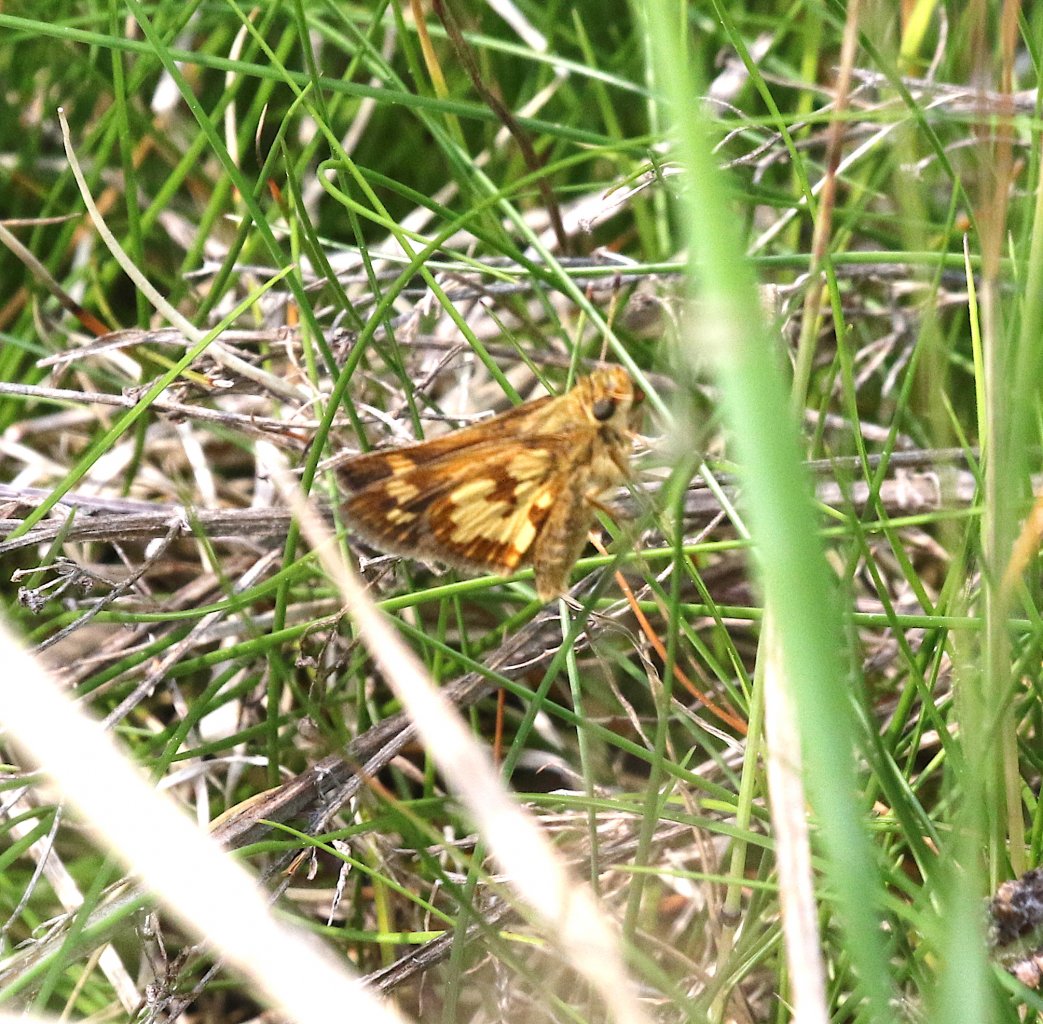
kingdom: Animalia
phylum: Arthropoda
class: Insecta
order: Lepidoptera
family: Hesperiidae
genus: Polites
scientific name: Polites coras
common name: Peck's Skipper
